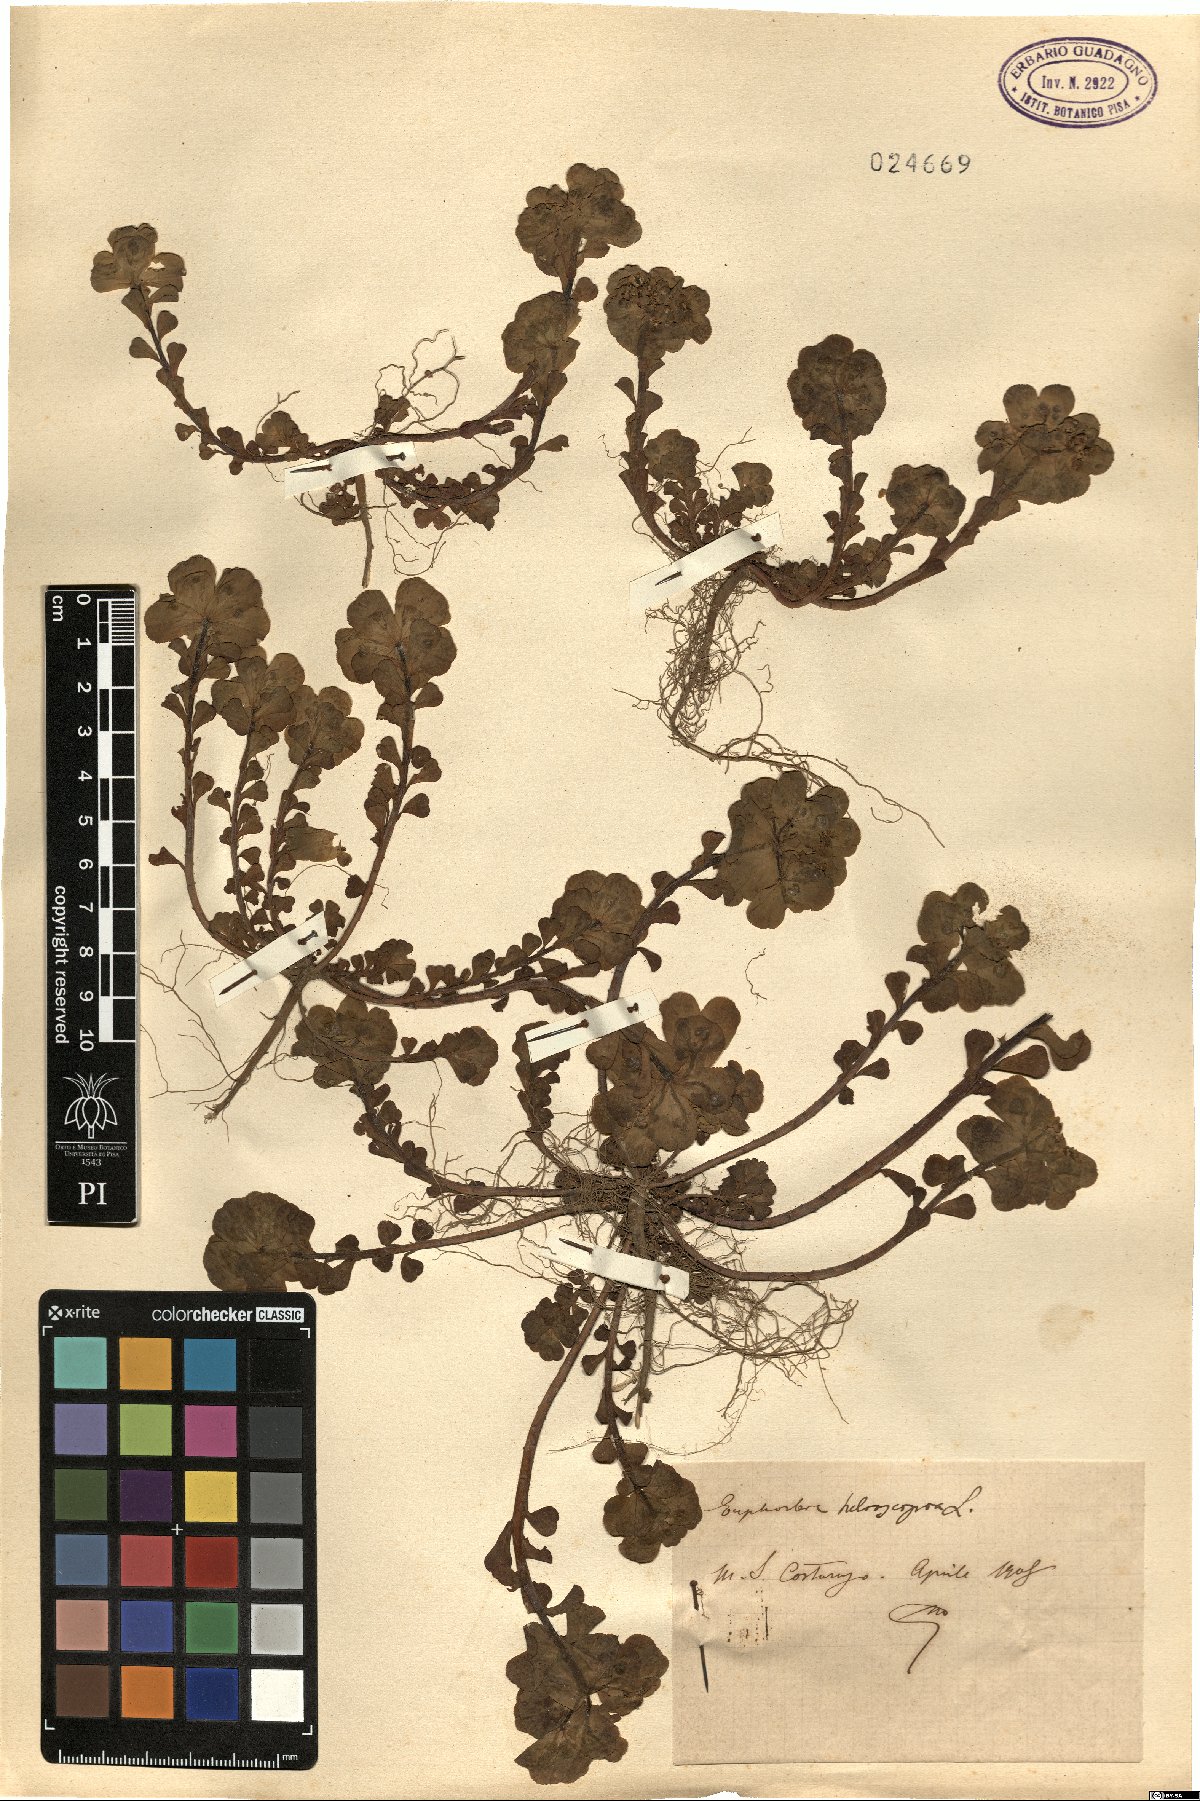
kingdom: Plantae
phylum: Tracheophyta
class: Magnoliopsida
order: Malpighiales
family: Euphorbiaceae
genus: Euphorbia
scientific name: Euphorbia helioscopia
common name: Sun spurge
